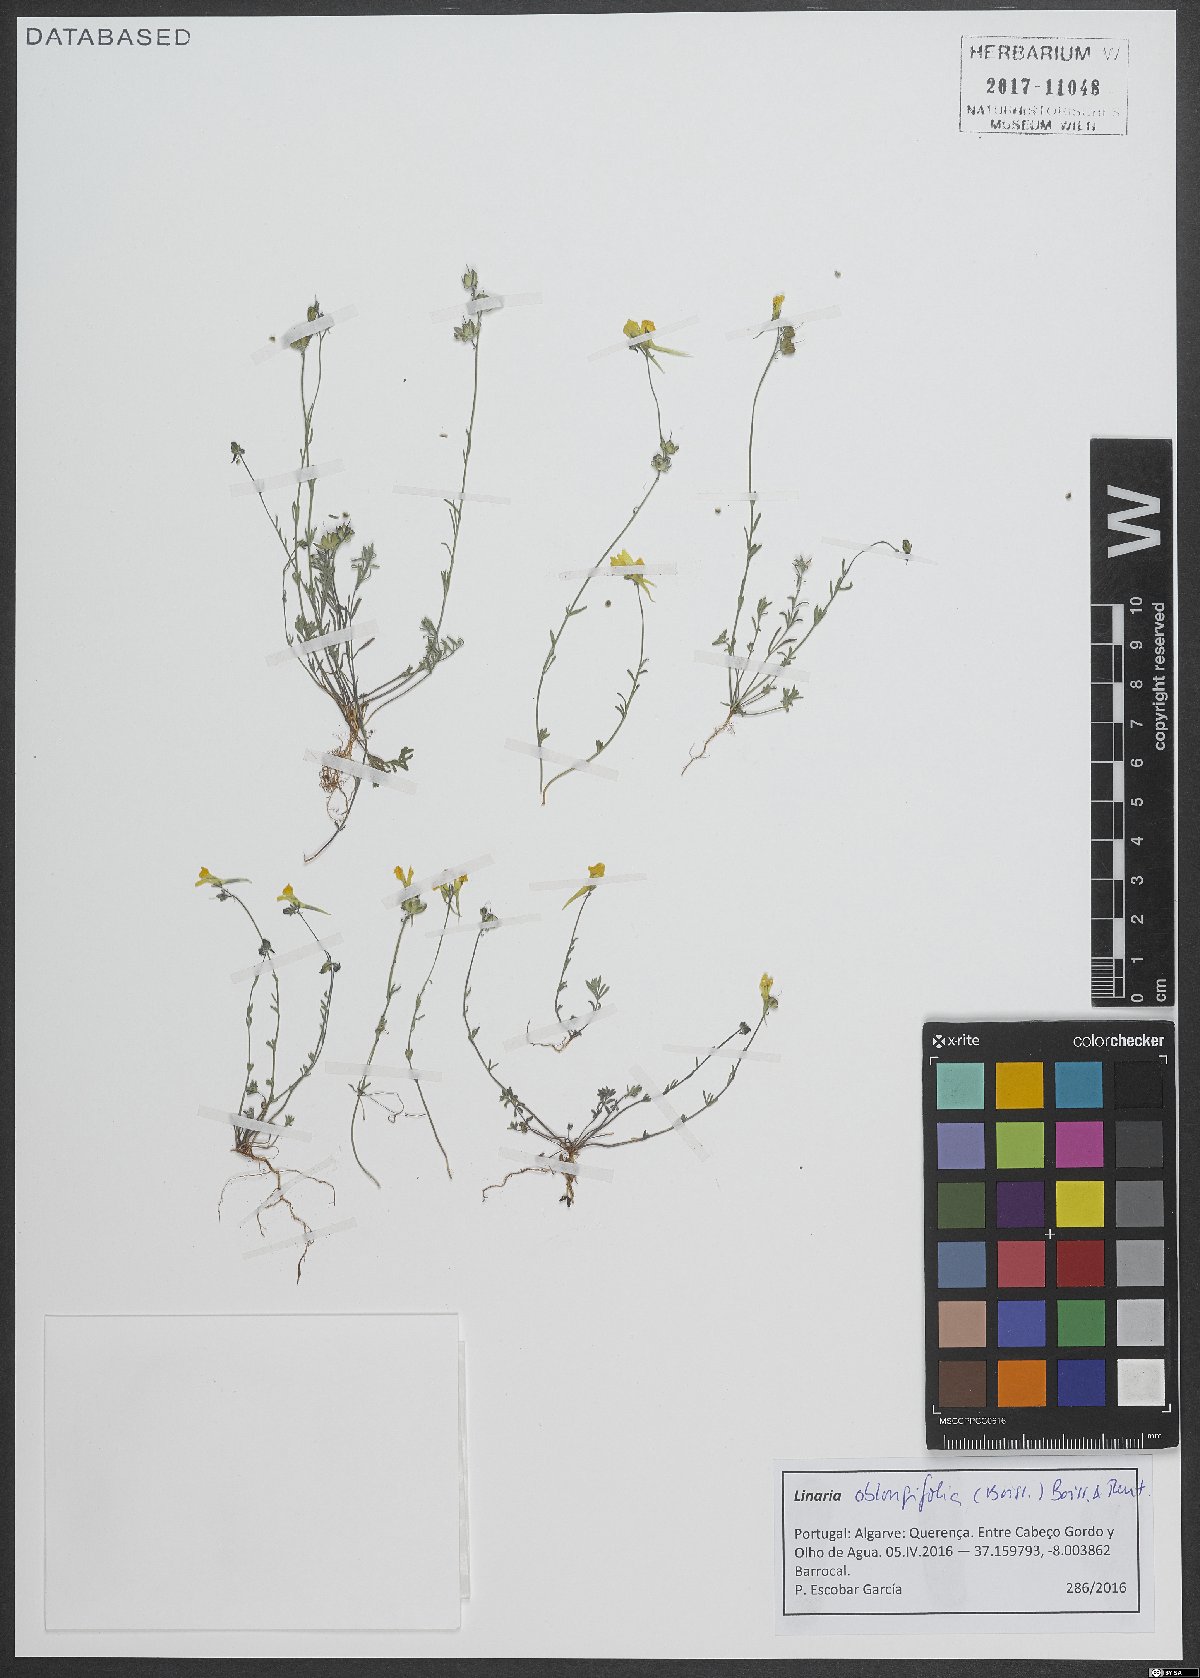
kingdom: Plantae
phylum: Tracheophyta
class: Magnoliopsida
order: Lamiales
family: Plantaginaceae
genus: Linaria
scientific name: Linaria oblongifolia
